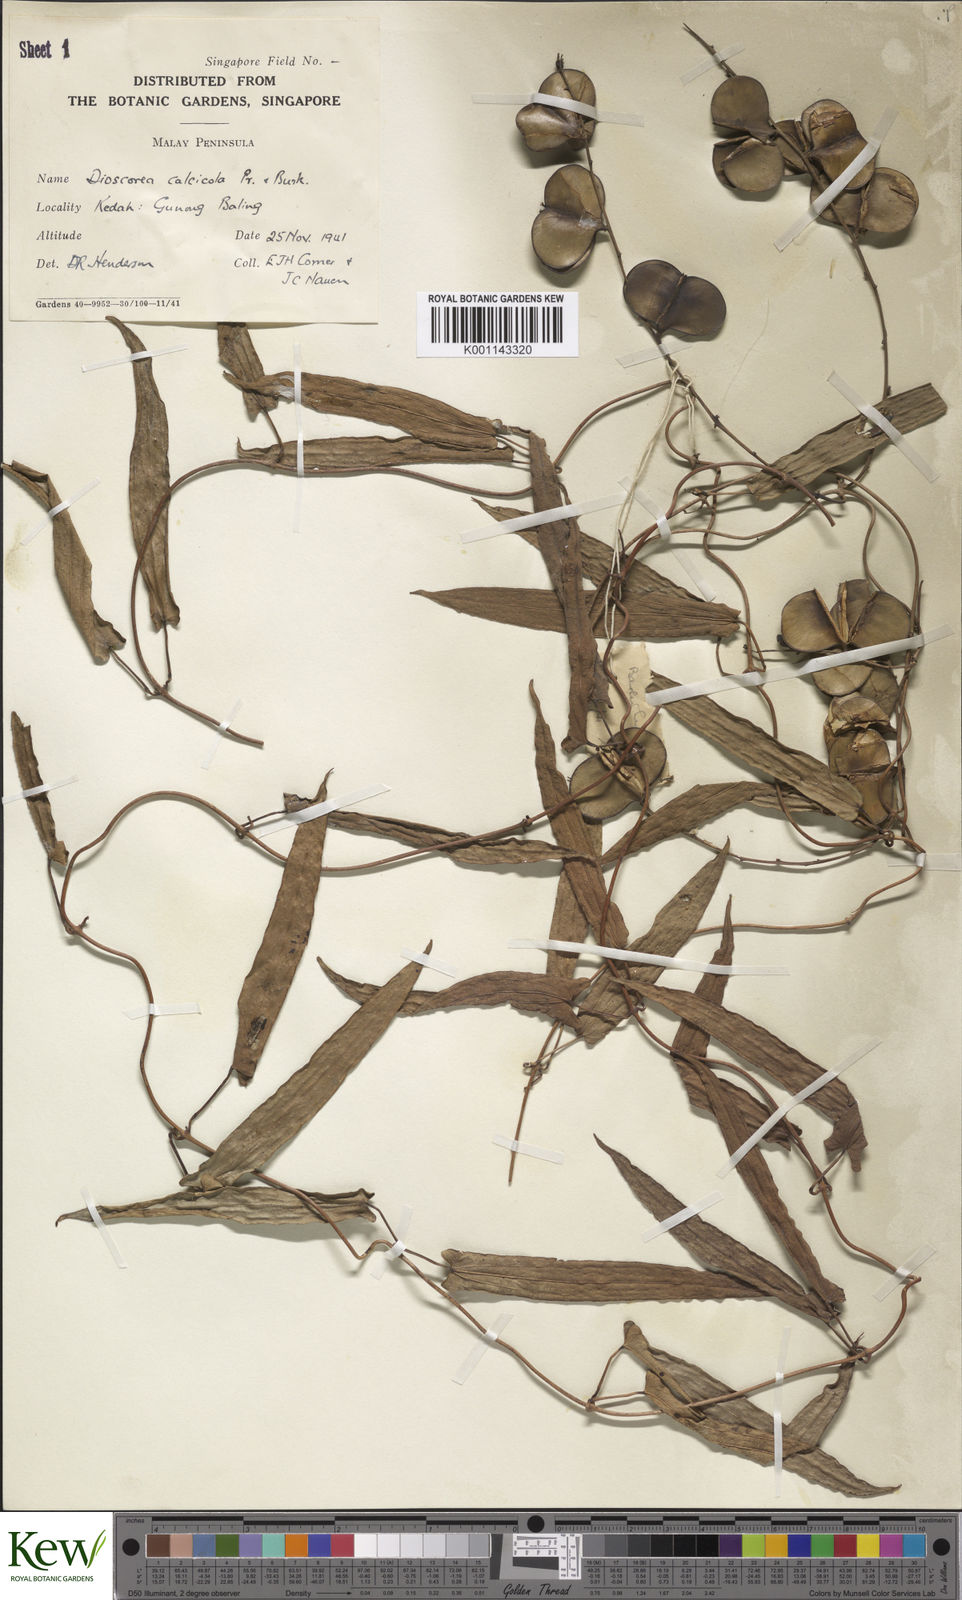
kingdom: Plantae
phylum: Tracheophyta
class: Liliopsida
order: Dioscoreales
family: Dioscoreaceae
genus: Dioscorea
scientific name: Dioscorea calcicola
